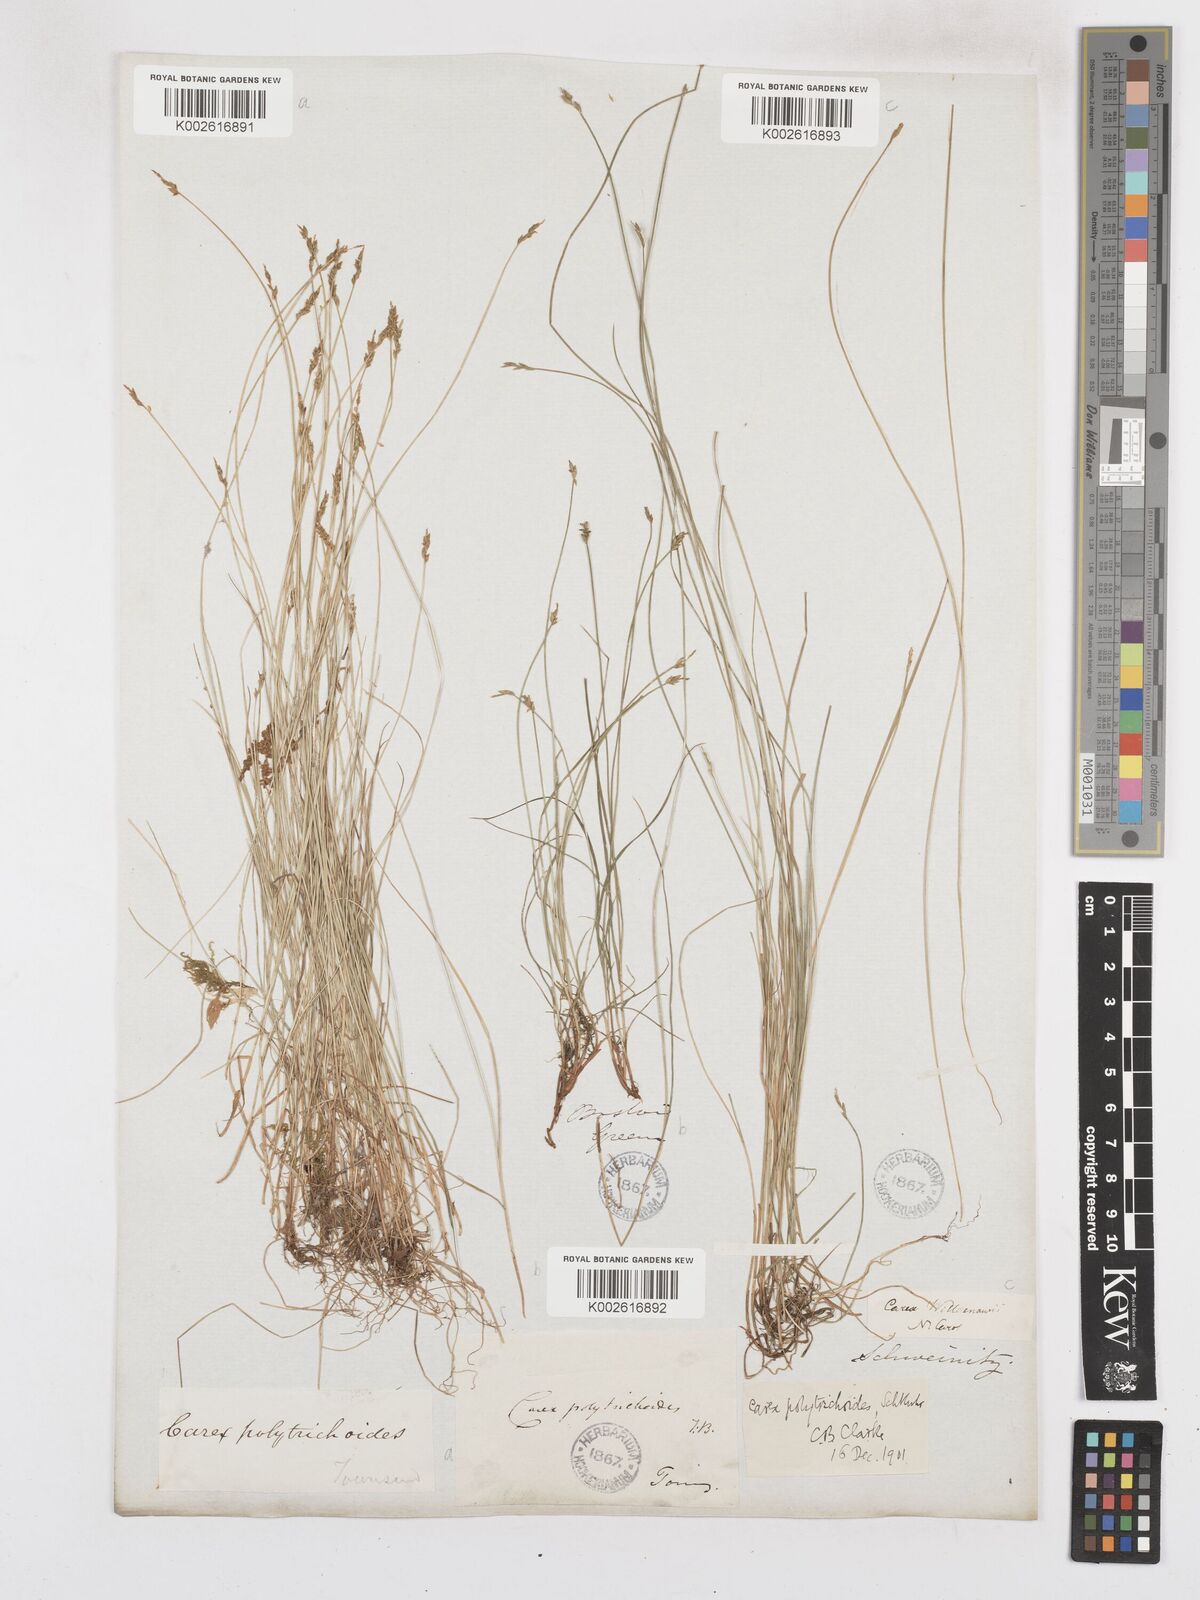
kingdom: Plantae
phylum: Tracheophyta
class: Liliopsida
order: Poales
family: Cyperaceae
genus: Carex
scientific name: Carex leptalea
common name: Bristly-stalked sedge
